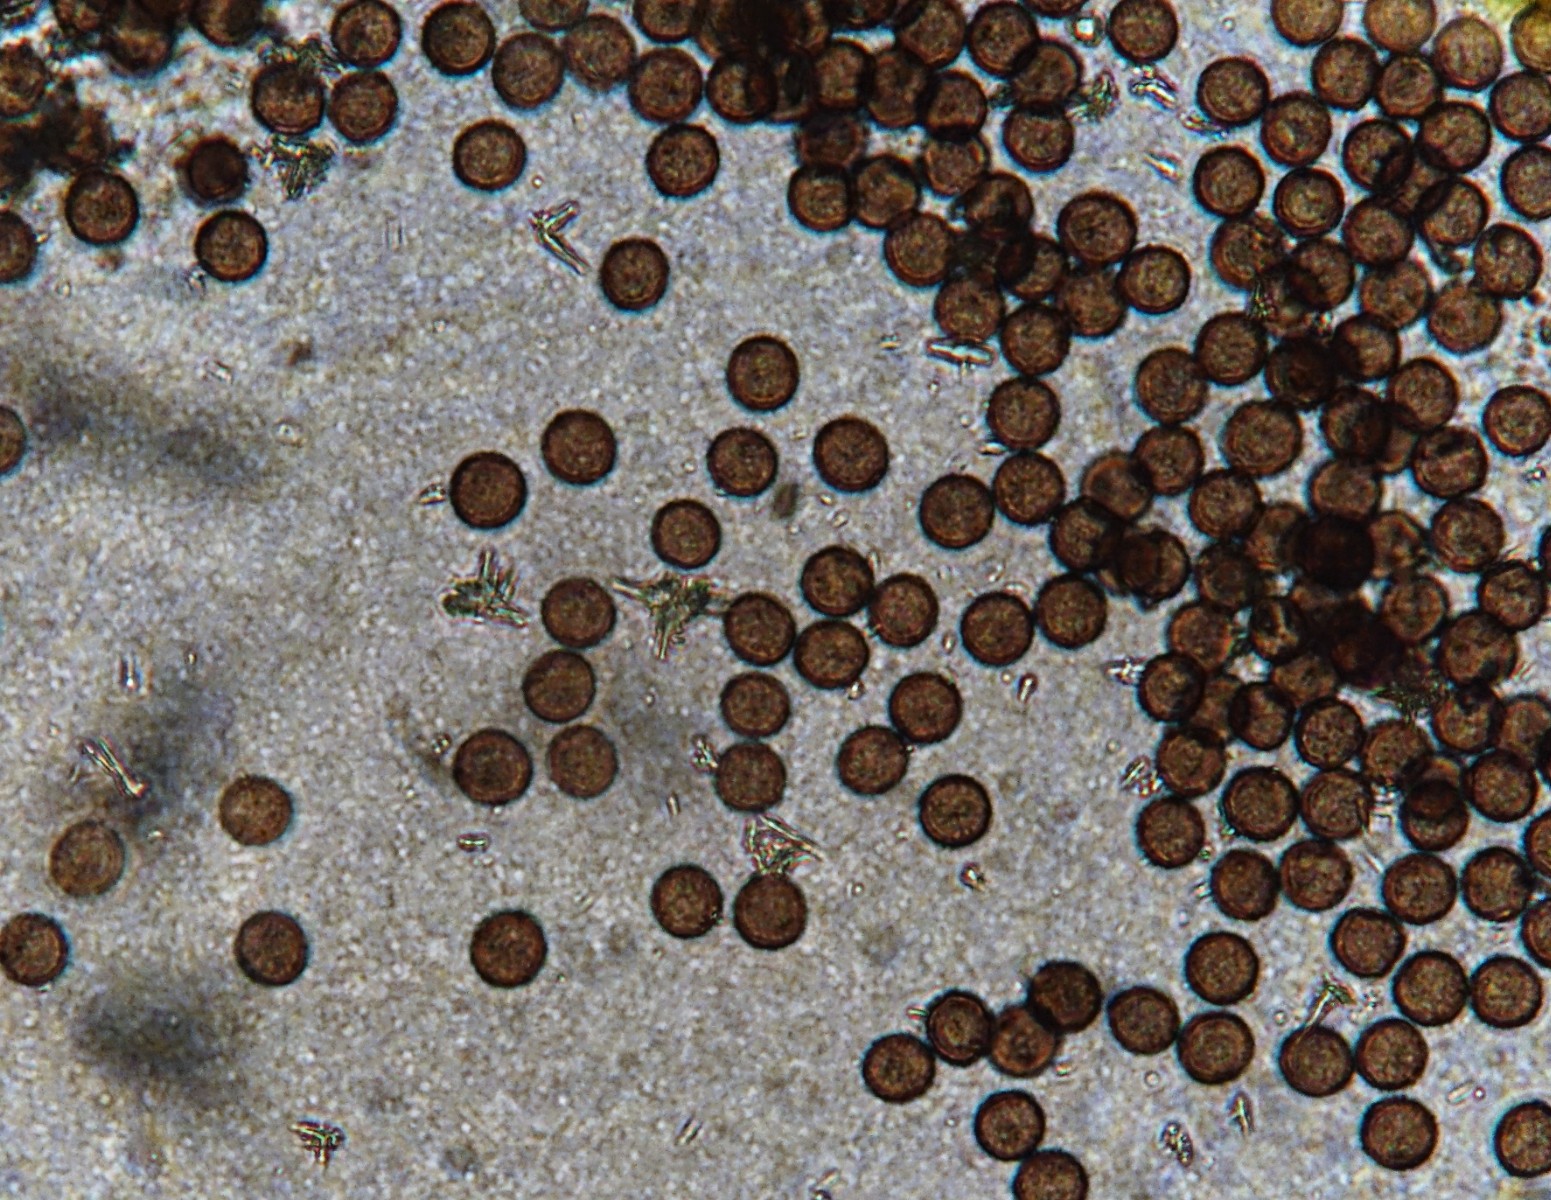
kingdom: Protozoa
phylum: Mycetozoa
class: Myxomycetes
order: Physarales
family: Didymiaceae
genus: Didymium
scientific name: Didymium squamulosum
